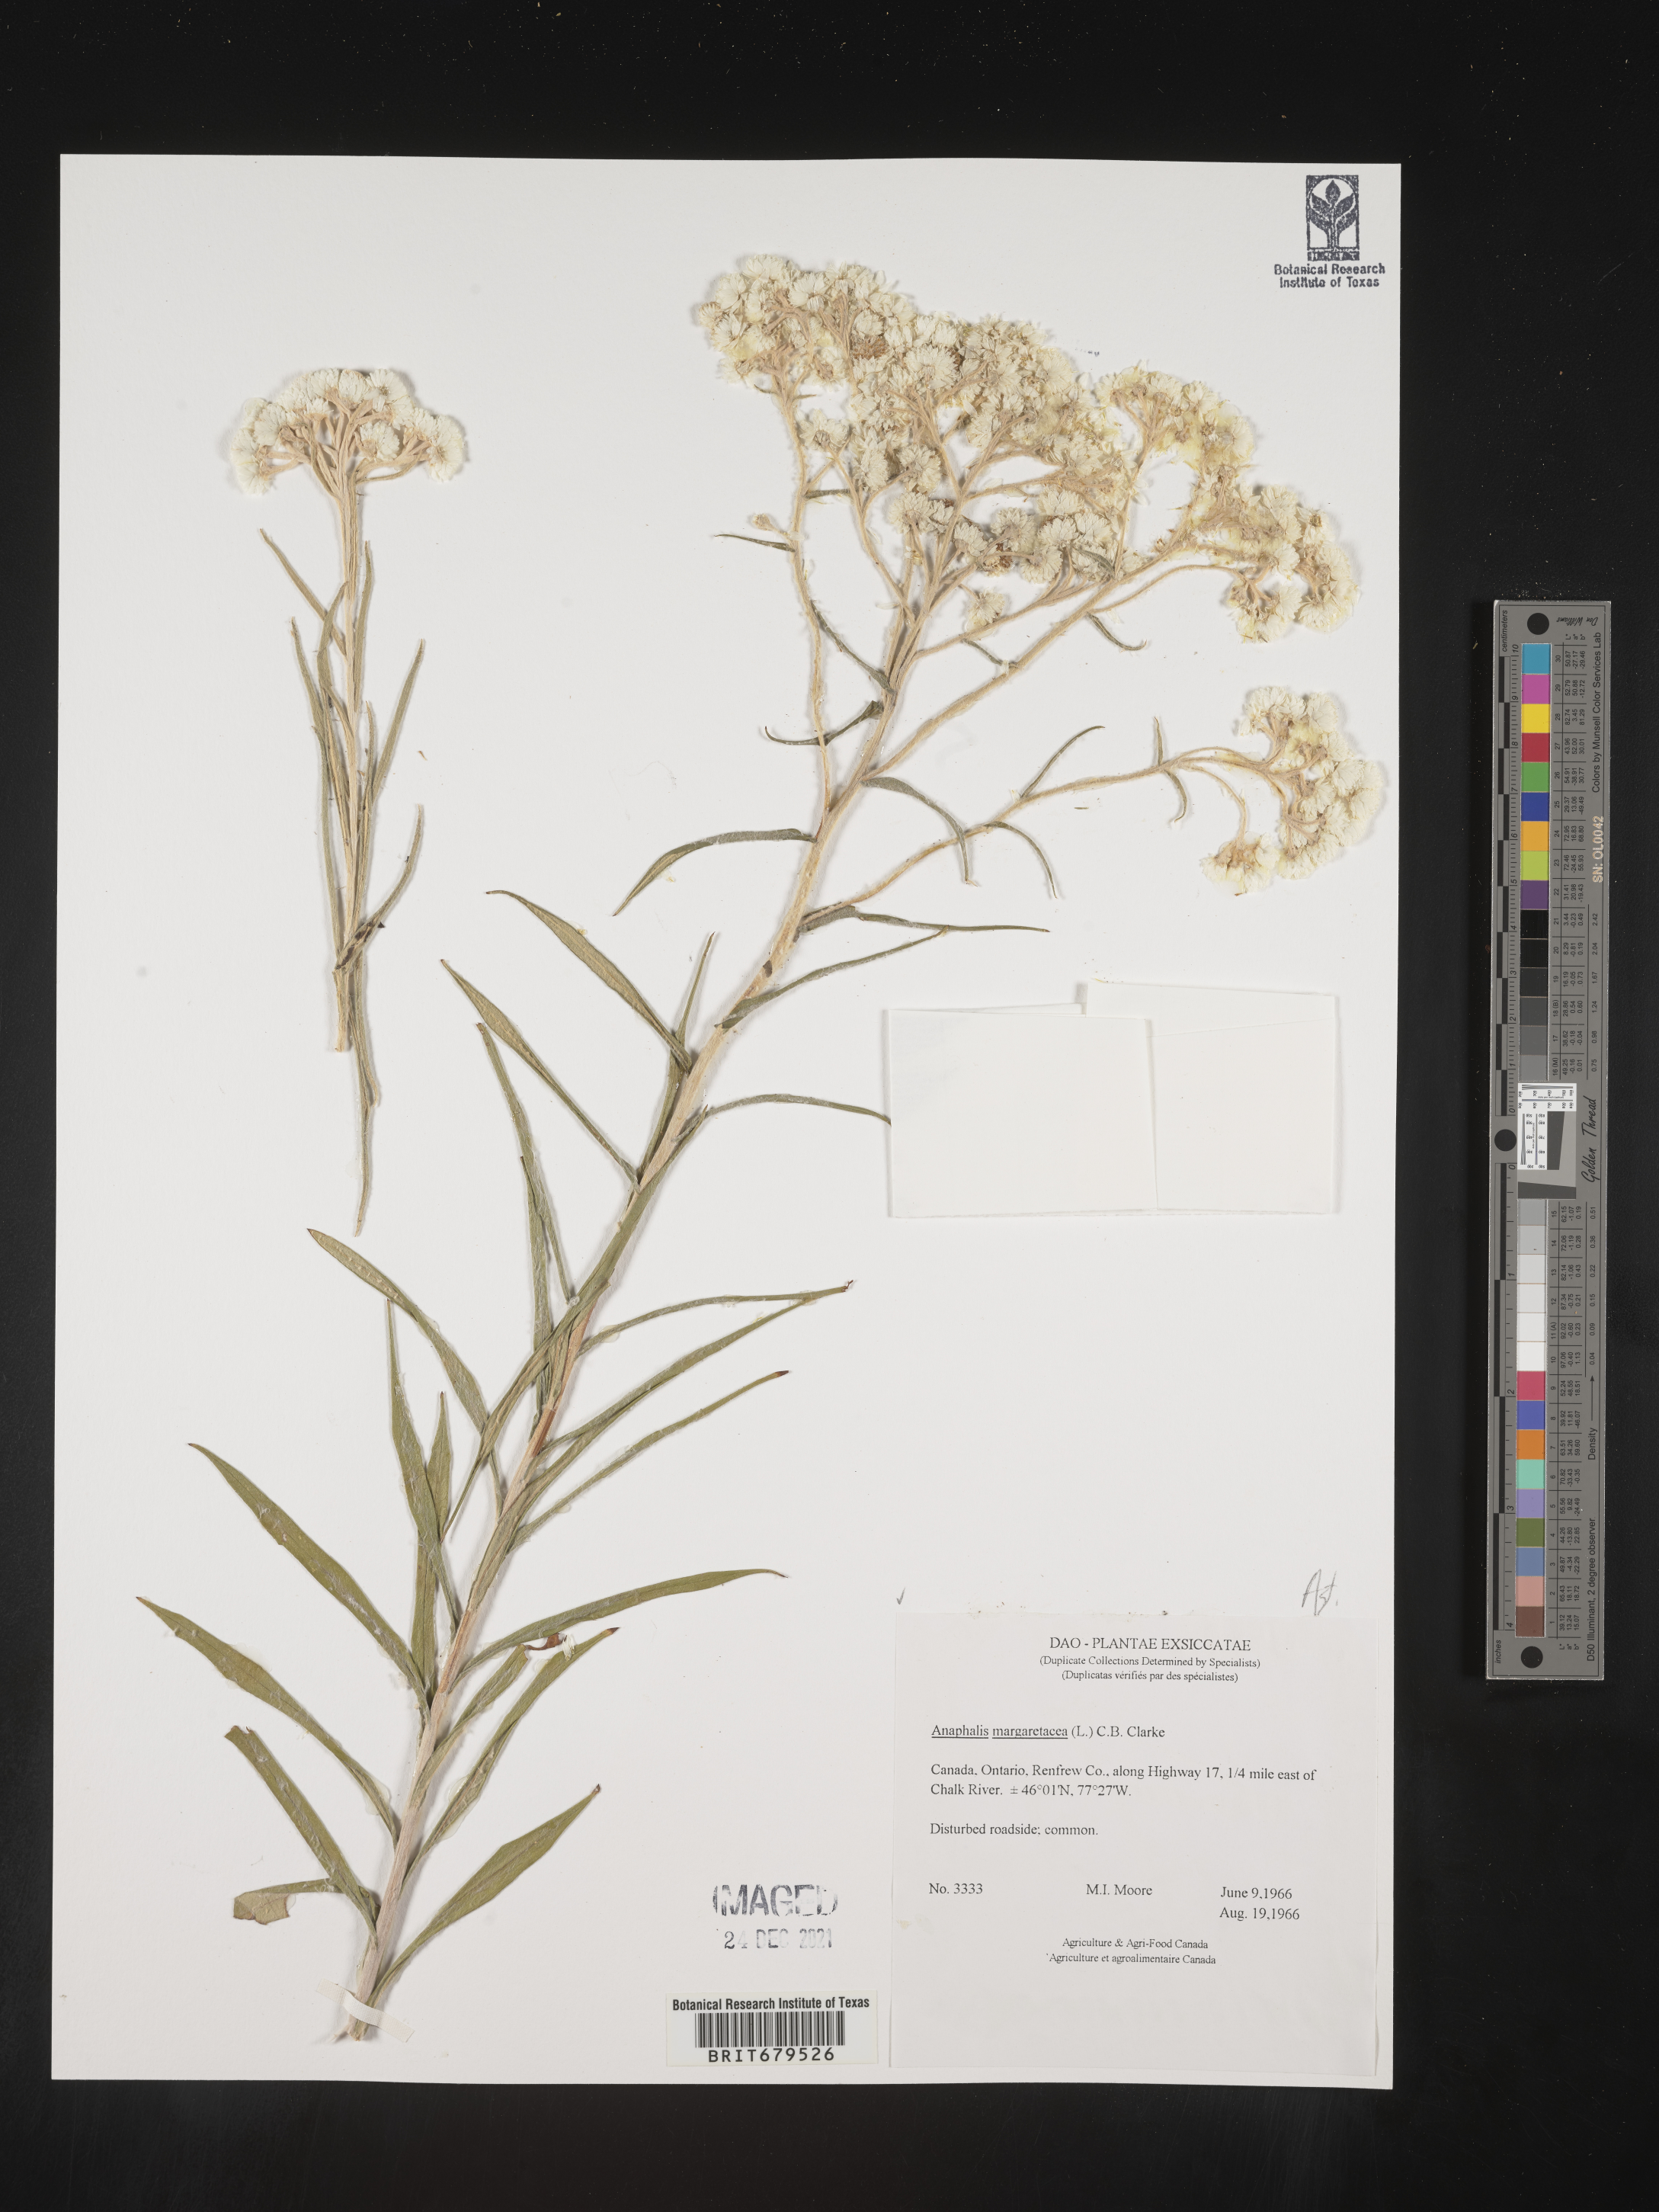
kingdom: Plantae
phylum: Tracheophyta
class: Magnoliopsida
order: Asterales
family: Asteraceae
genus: Anaphalis
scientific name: Anaphalis margaritacea
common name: Pearly everlasting
